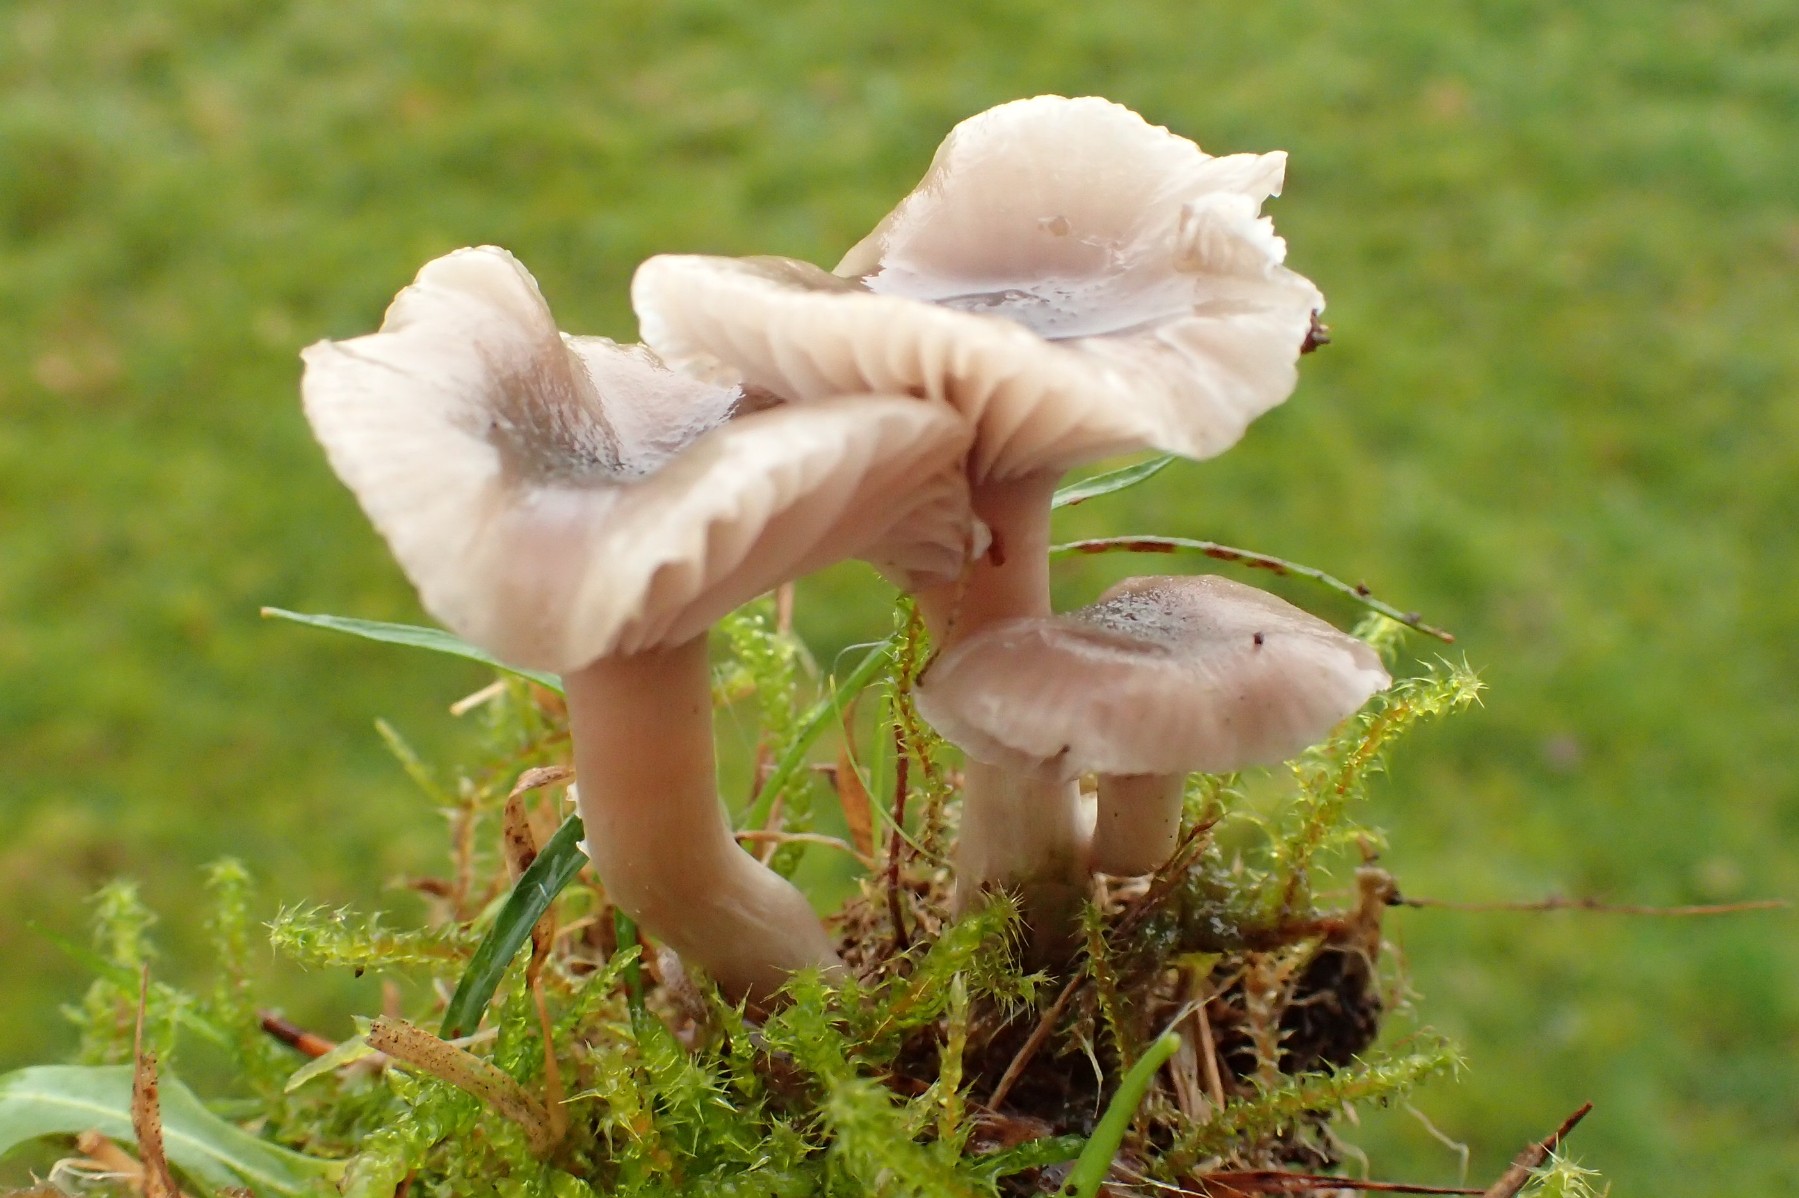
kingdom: Fungi
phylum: Basidiomycota
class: Agaricomycetes
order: Agaricales
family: Hygrophoraceae
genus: Cuphophyllus
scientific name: Cuphophyllus roseascens
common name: rosatonet vokshat
